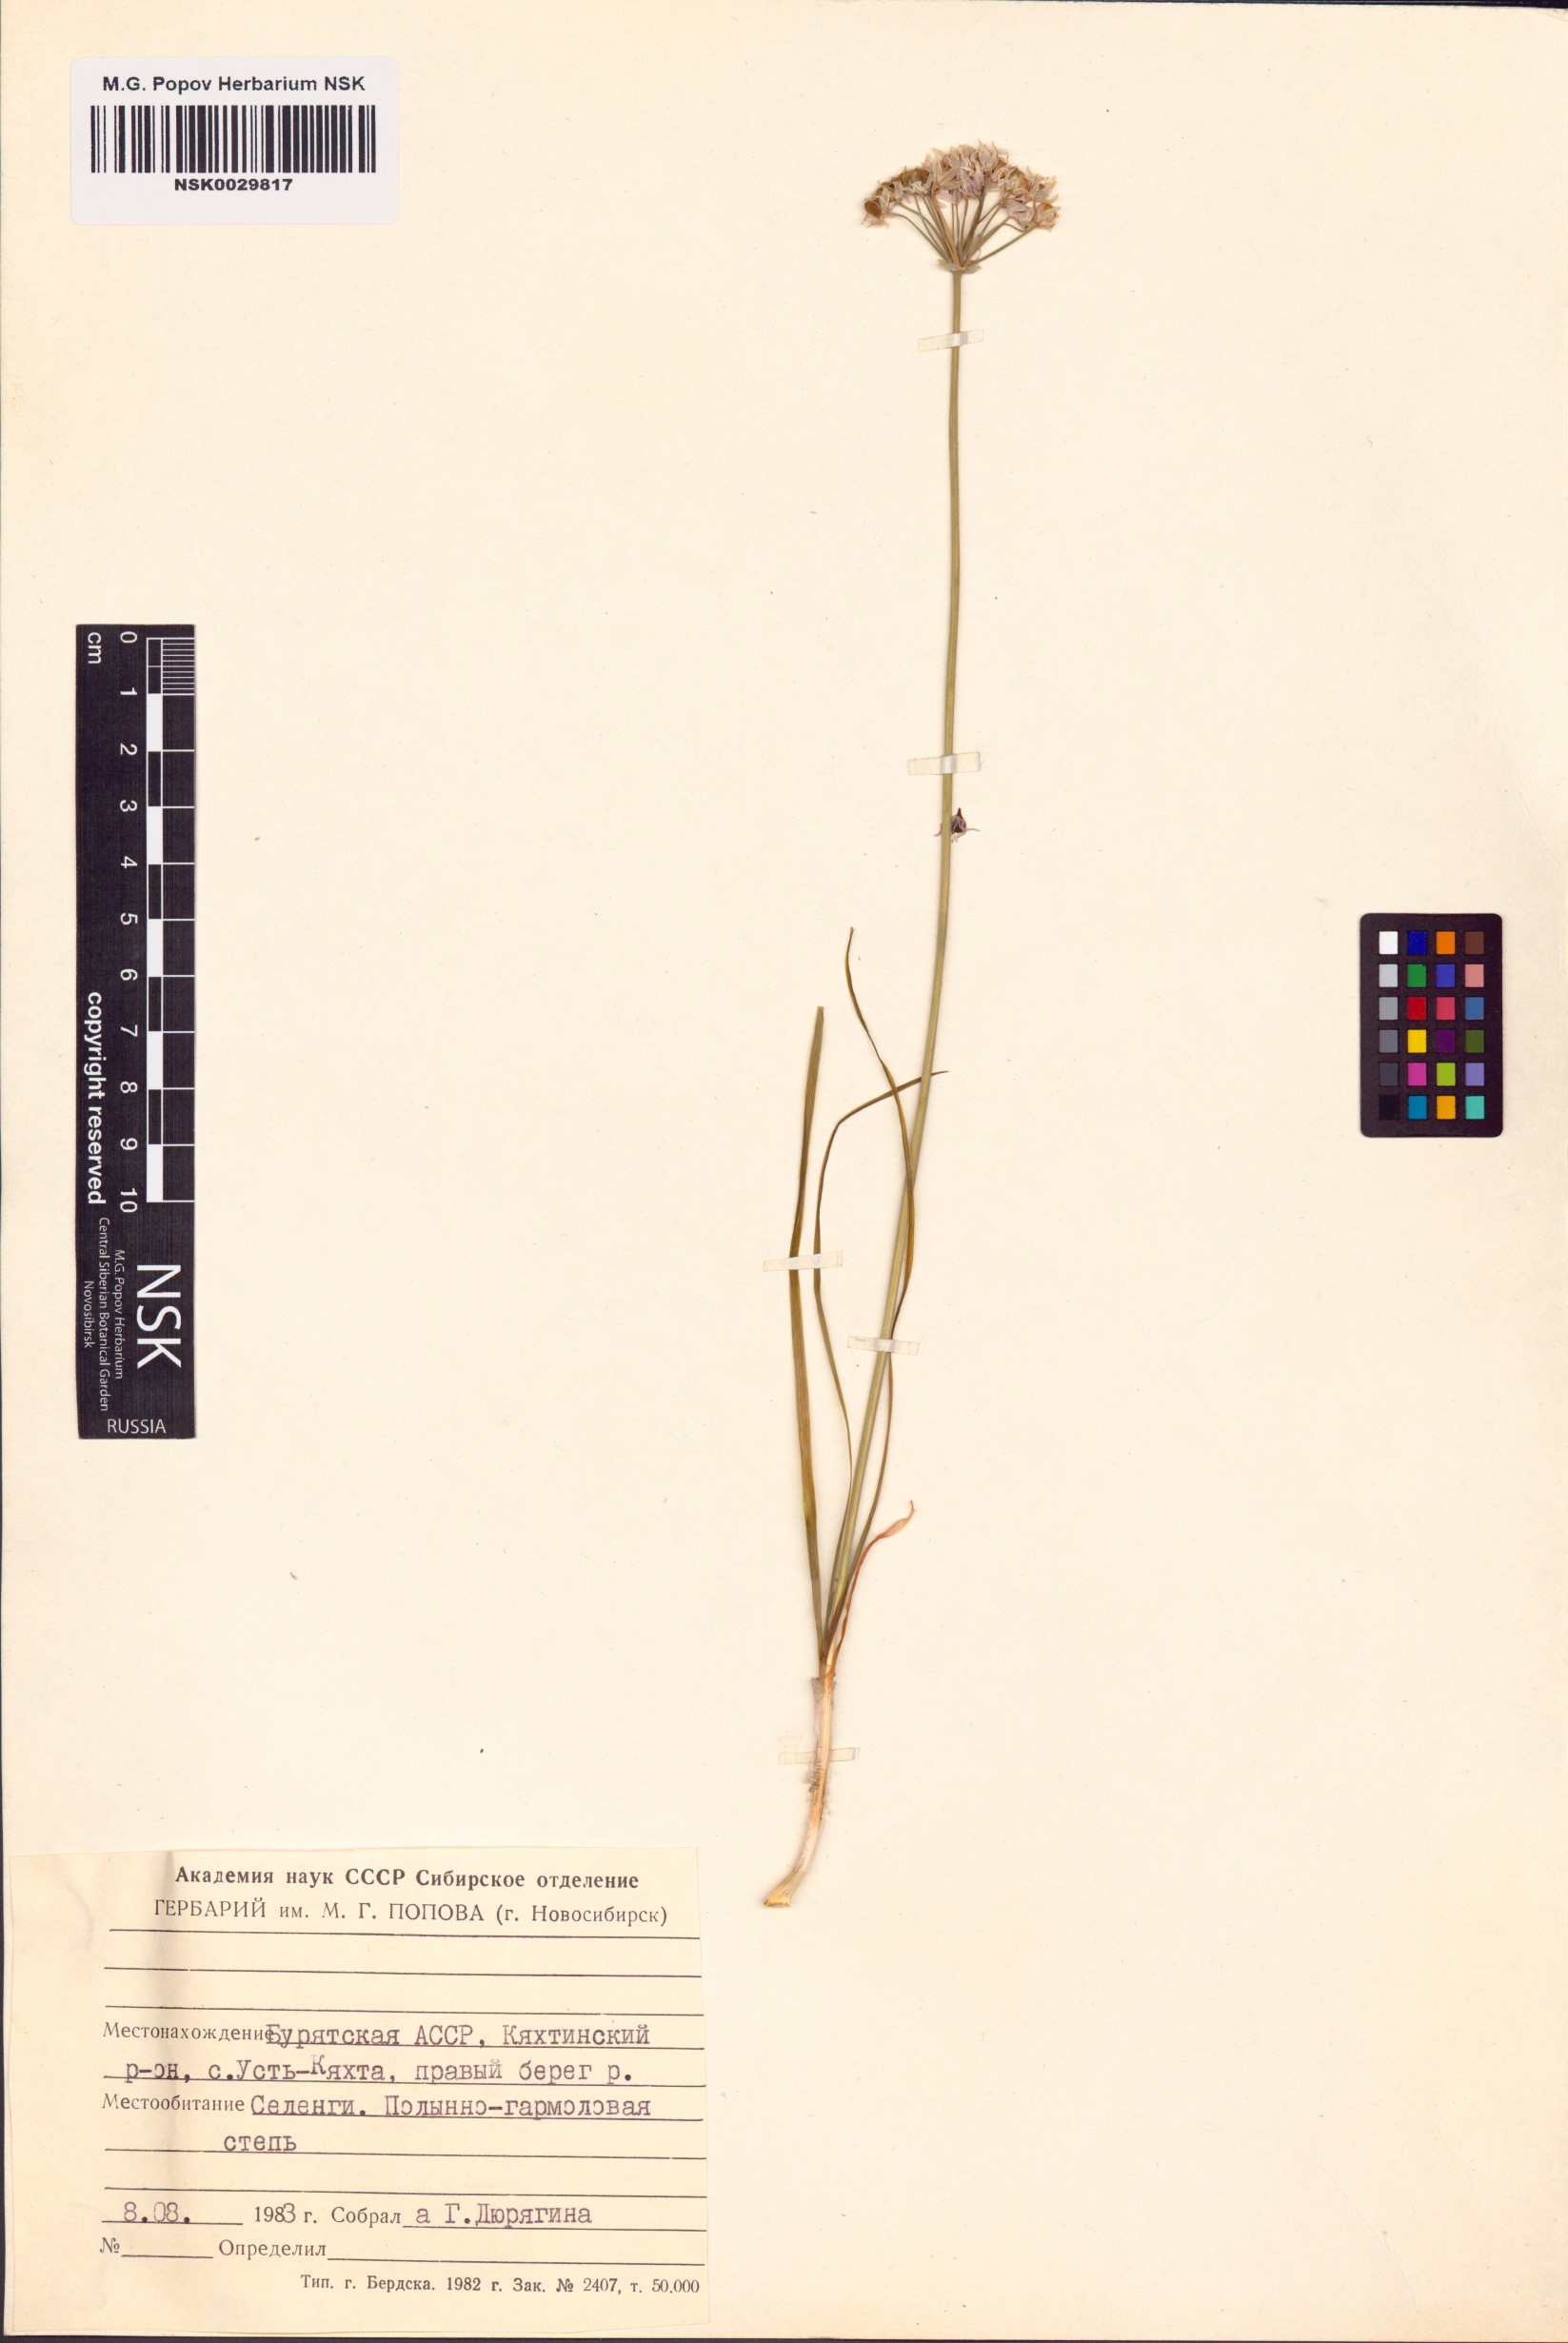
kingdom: Plantae
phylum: Tracheophyta
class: Liliopsida
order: Asparagales
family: Amaryllidaceae
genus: Allium
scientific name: Allium ramosum
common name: Fragrant garlic
